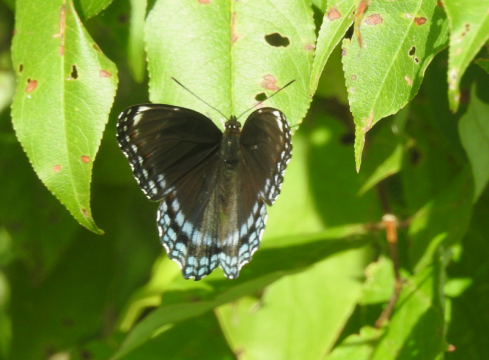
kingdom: Animalia
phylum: Arthropoda
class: Insecta
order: Lepidoptera
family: Nymphalidae
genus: Limenitis
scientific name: Limenitis arthemis
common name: Red-spotted Admiral
